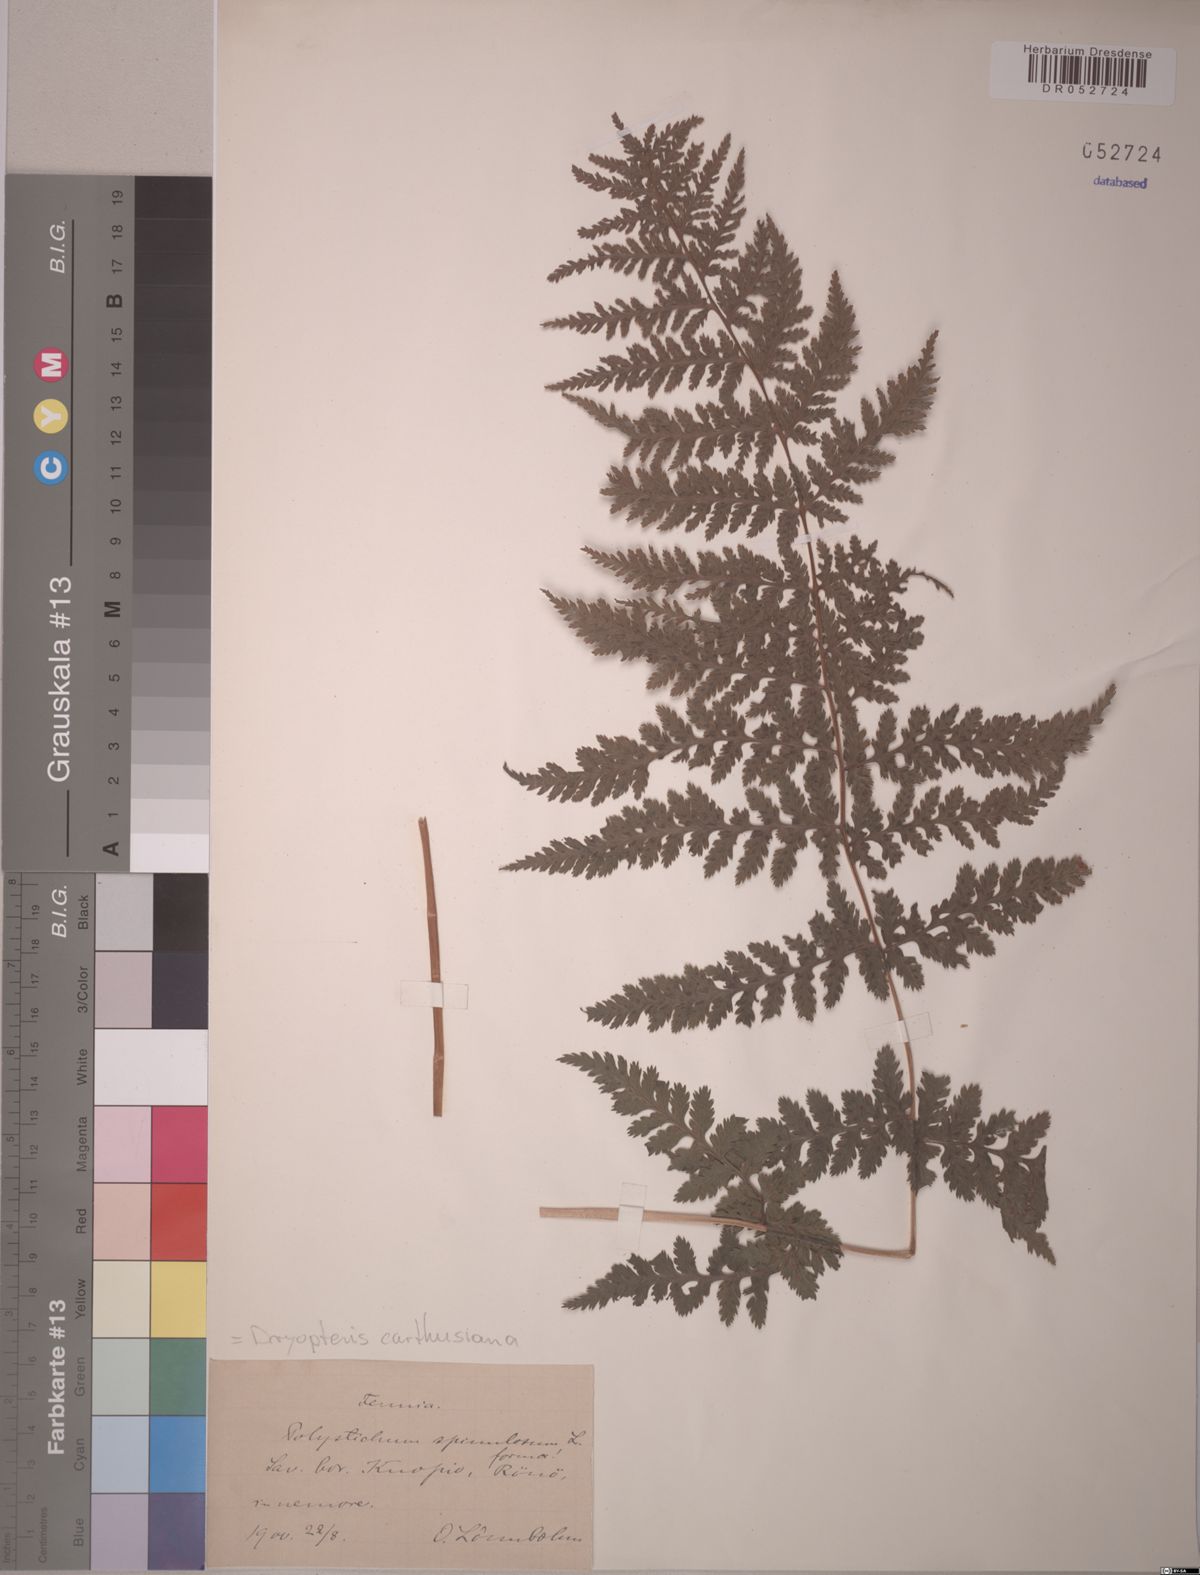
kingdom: Plantae
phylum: Tracheophyta
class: Polypodiopsida
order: Polypodiales
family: Dryopteridaceae
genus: Dryopteris
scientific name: Dryopteris carthusiana
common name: Narrow buckler-fern
